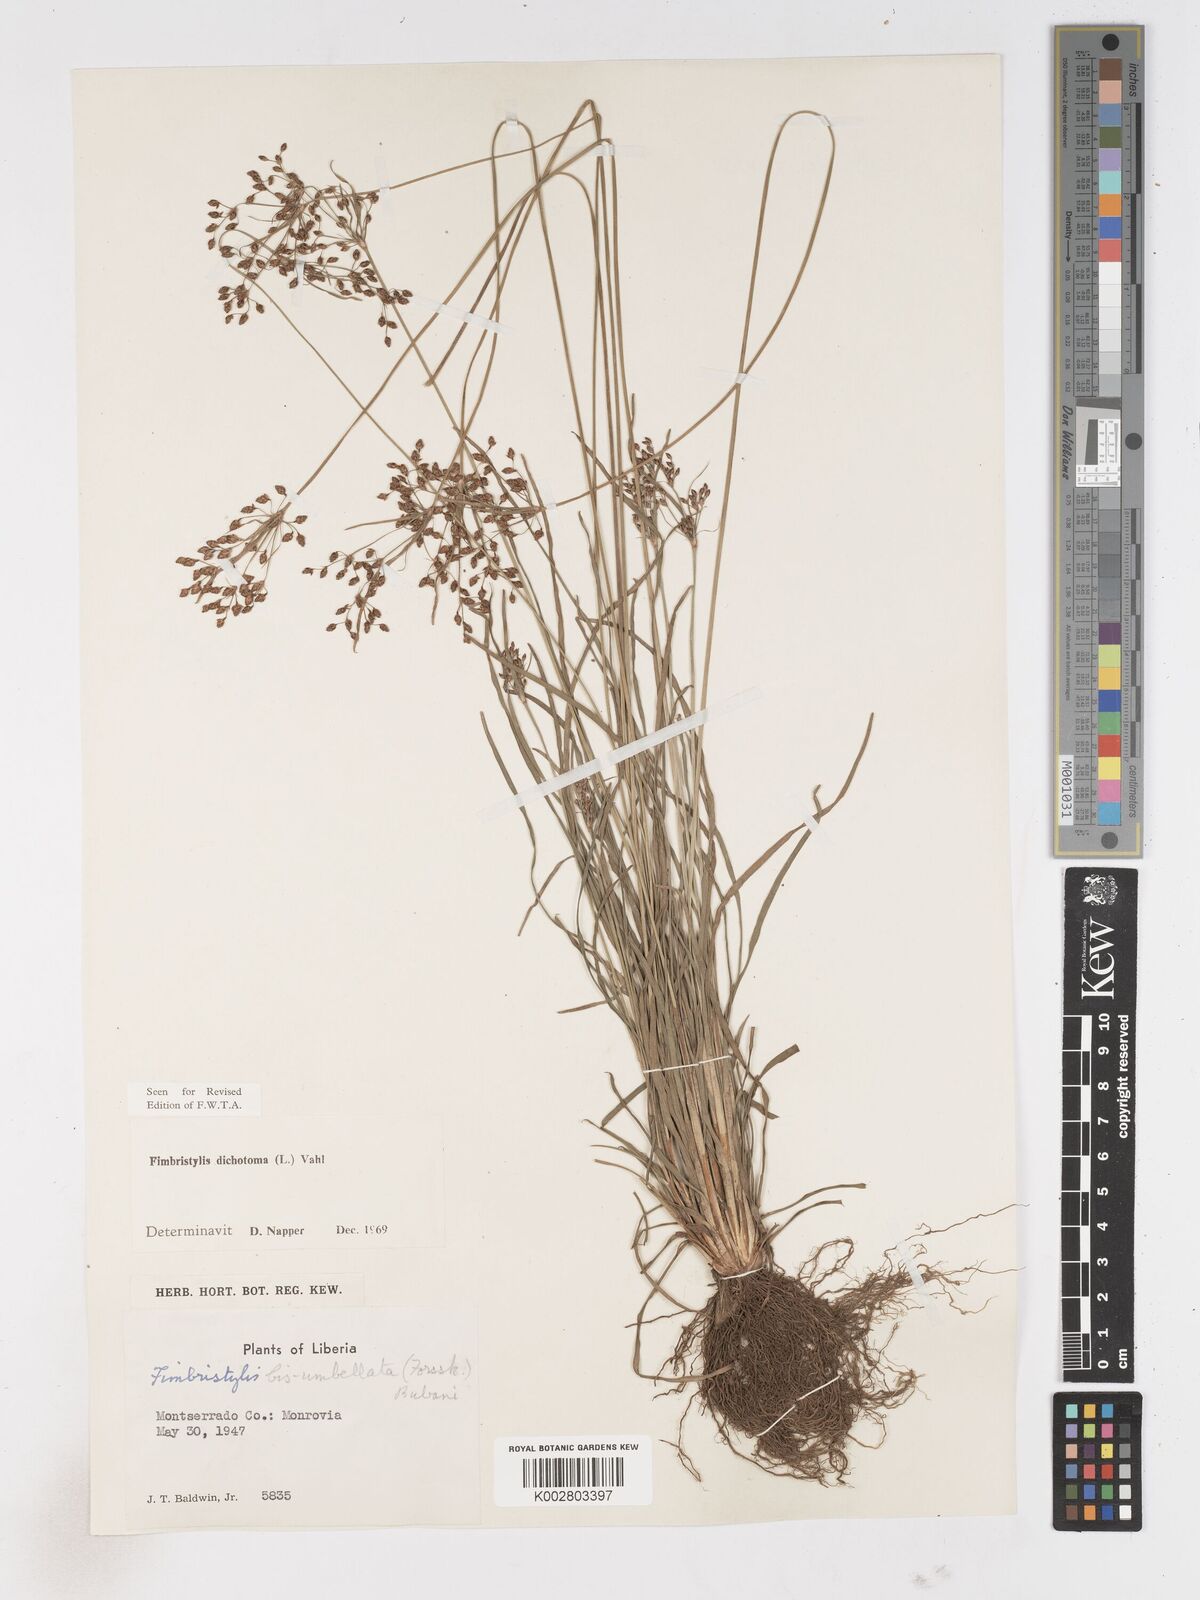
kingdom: Plantae
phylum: Tracheophyta
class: Liliopsida
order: Poales
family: Cyperaceae
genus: Fimbristylis
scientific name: Fimbristylis dichotoma
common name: Forked fimbry
